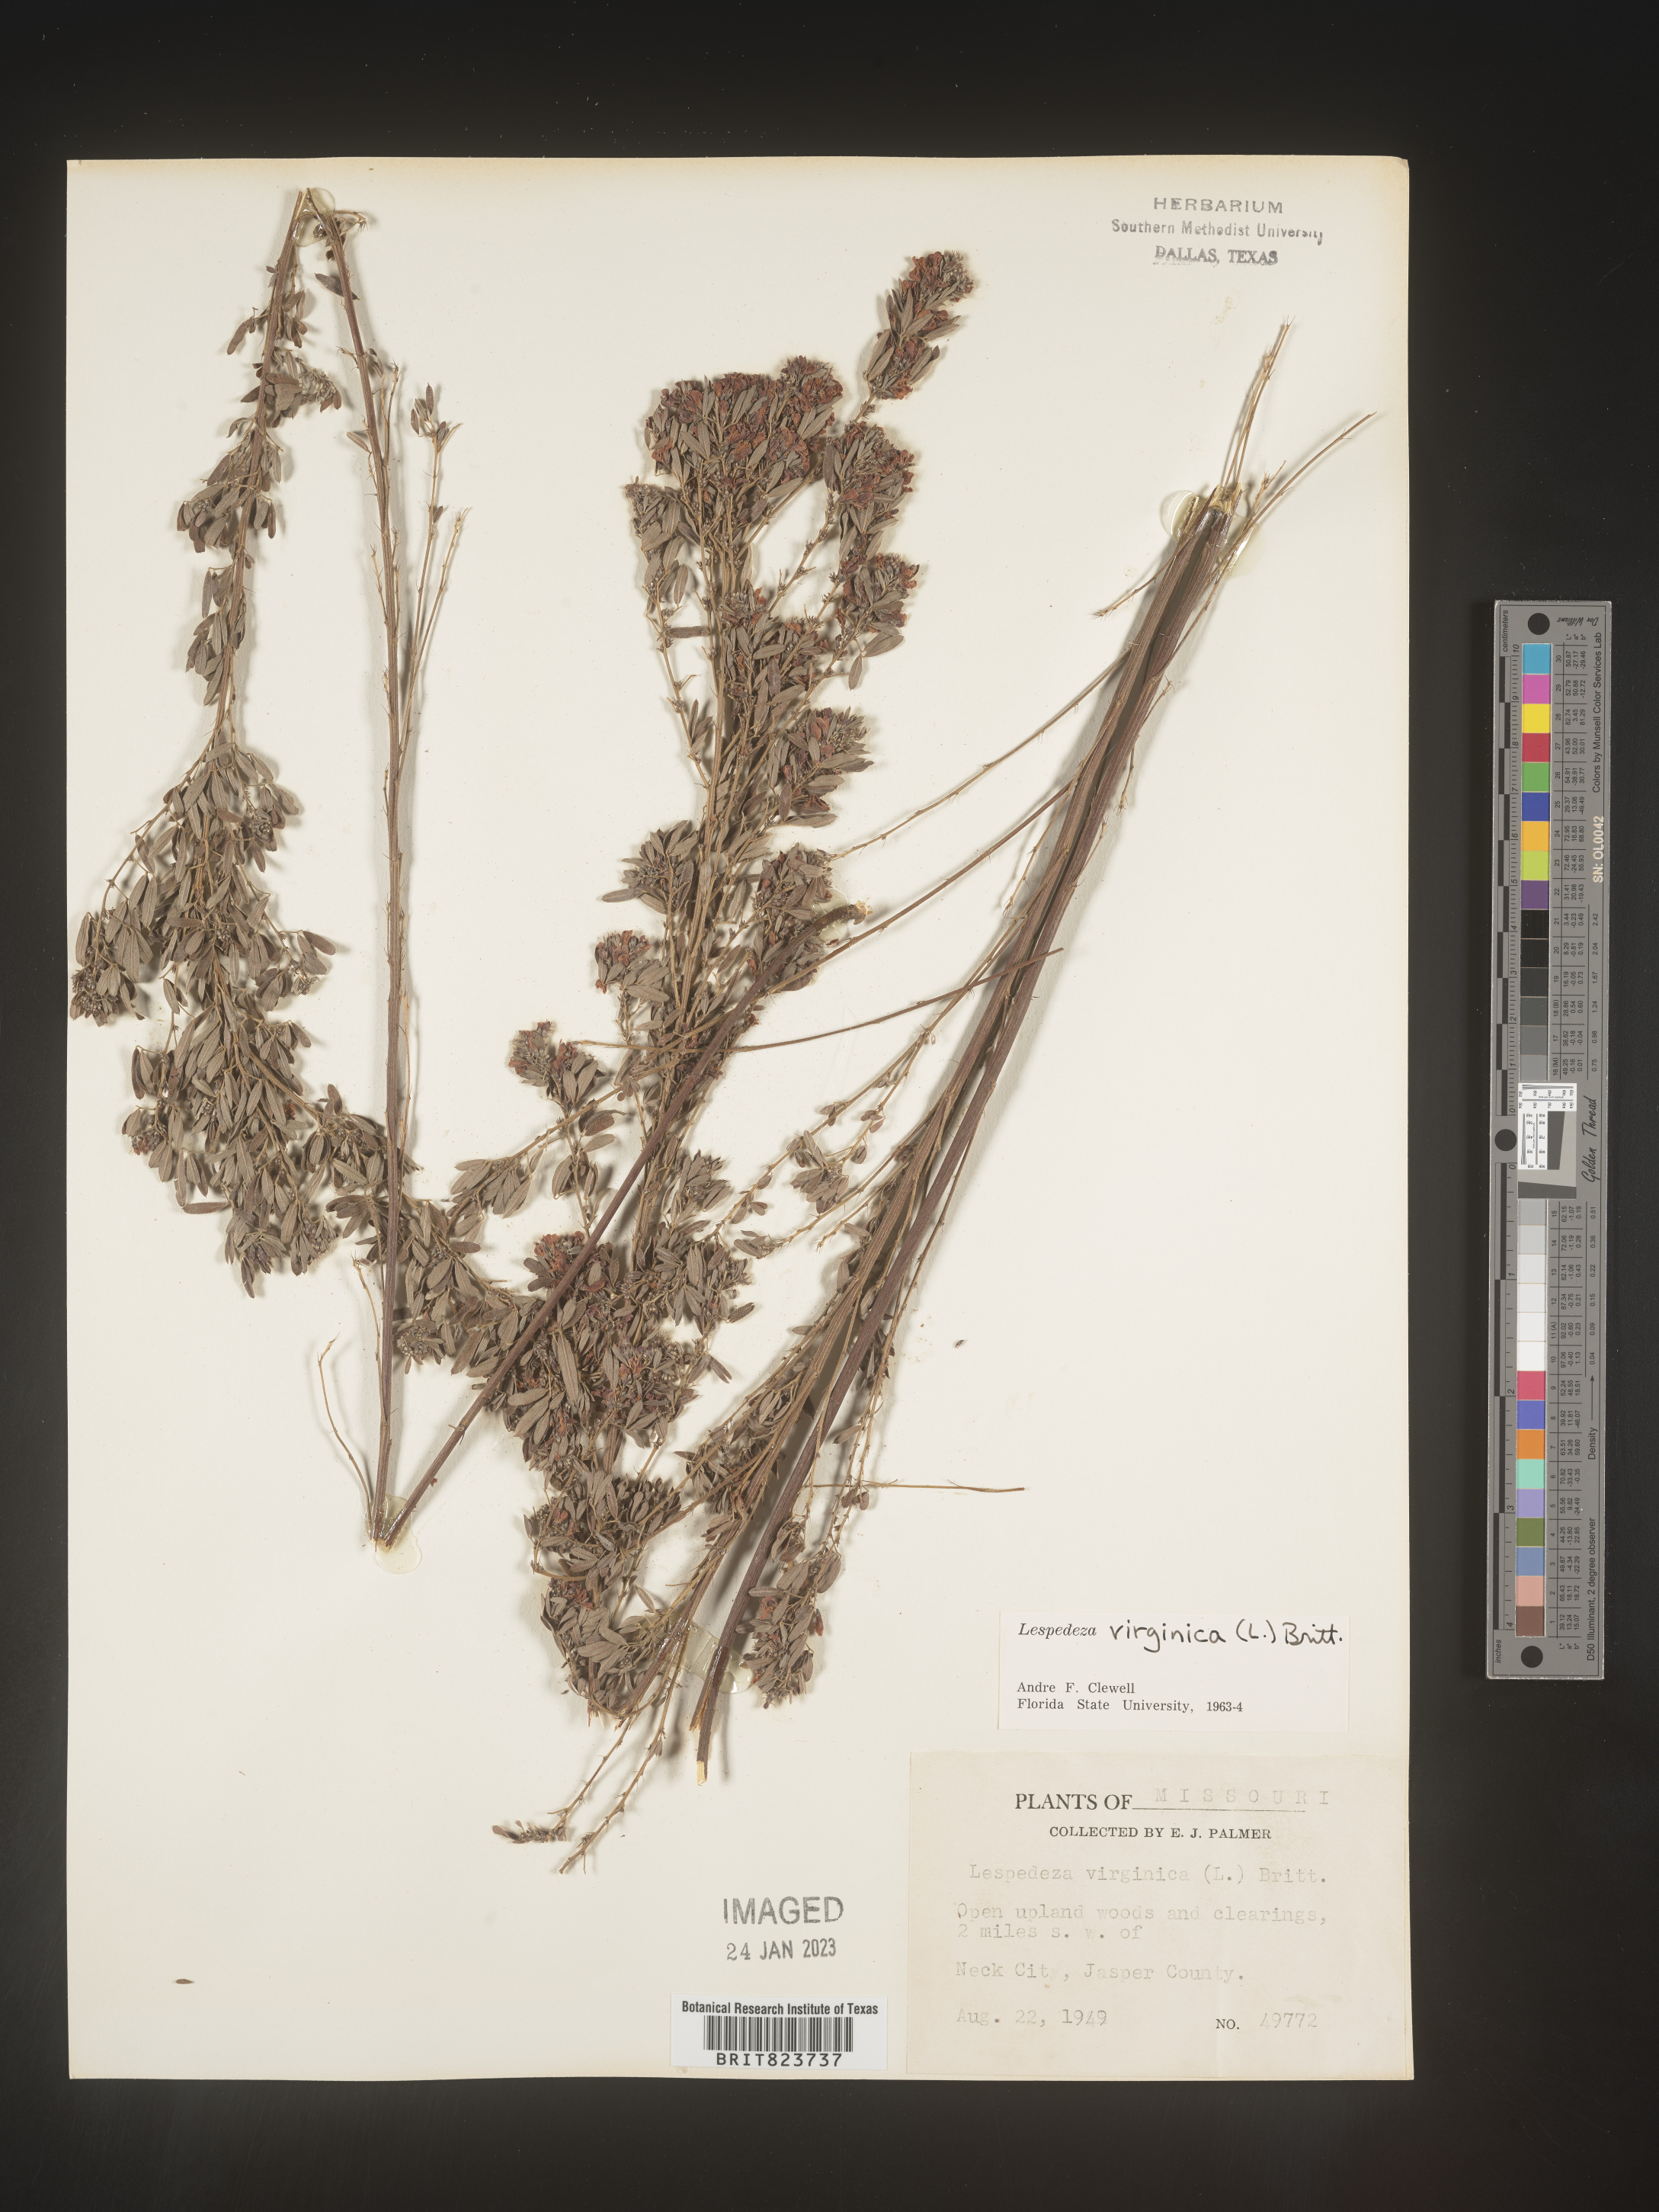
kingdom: Plantae
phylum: Tracheophyta
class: Magnoliopsida
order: Fabales
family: Fabaceae
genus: Lespedeza
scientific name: Lespedeza virginica
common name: Slender bush-clover
